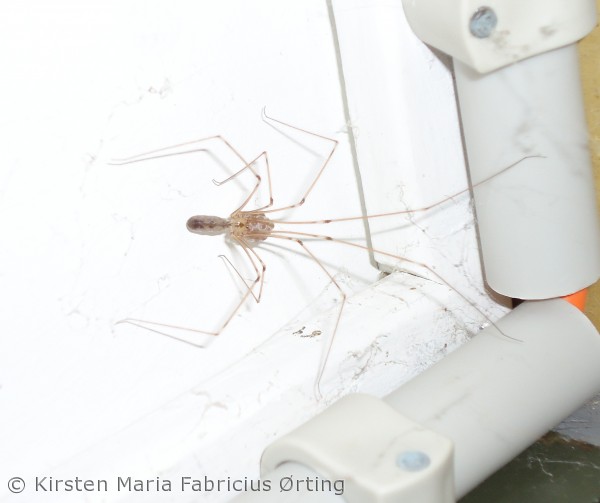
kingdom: Animalia
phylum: Arthropoda
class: Arachnida
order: Araneae
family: Pholcidae
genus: Pholcus
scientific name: Pholcus phalangioides
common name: Mejeredderkop
